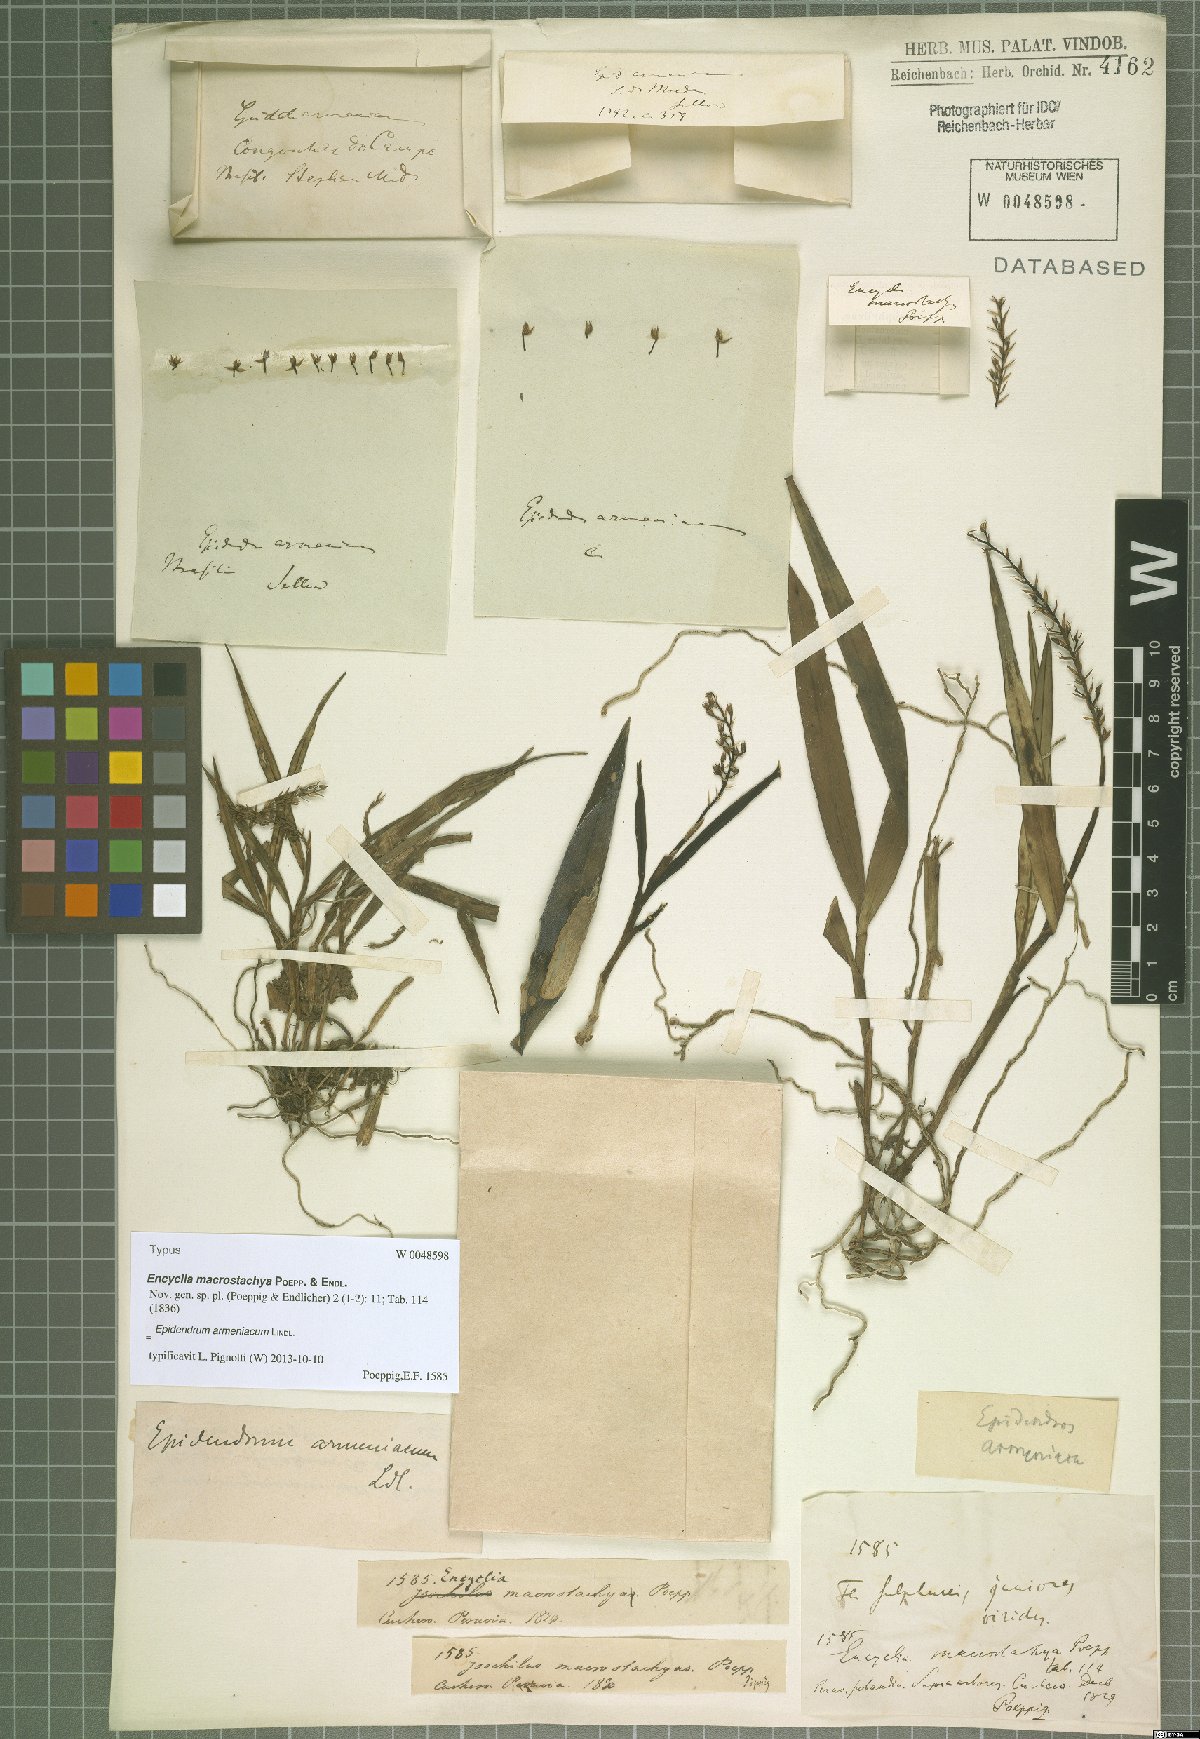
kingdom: Plantae
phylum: Tracheophyta
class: Liliopsida
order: Asparagales
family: Orchidaceae
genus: Epidendrum
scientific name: Epidendrum armeniacum
